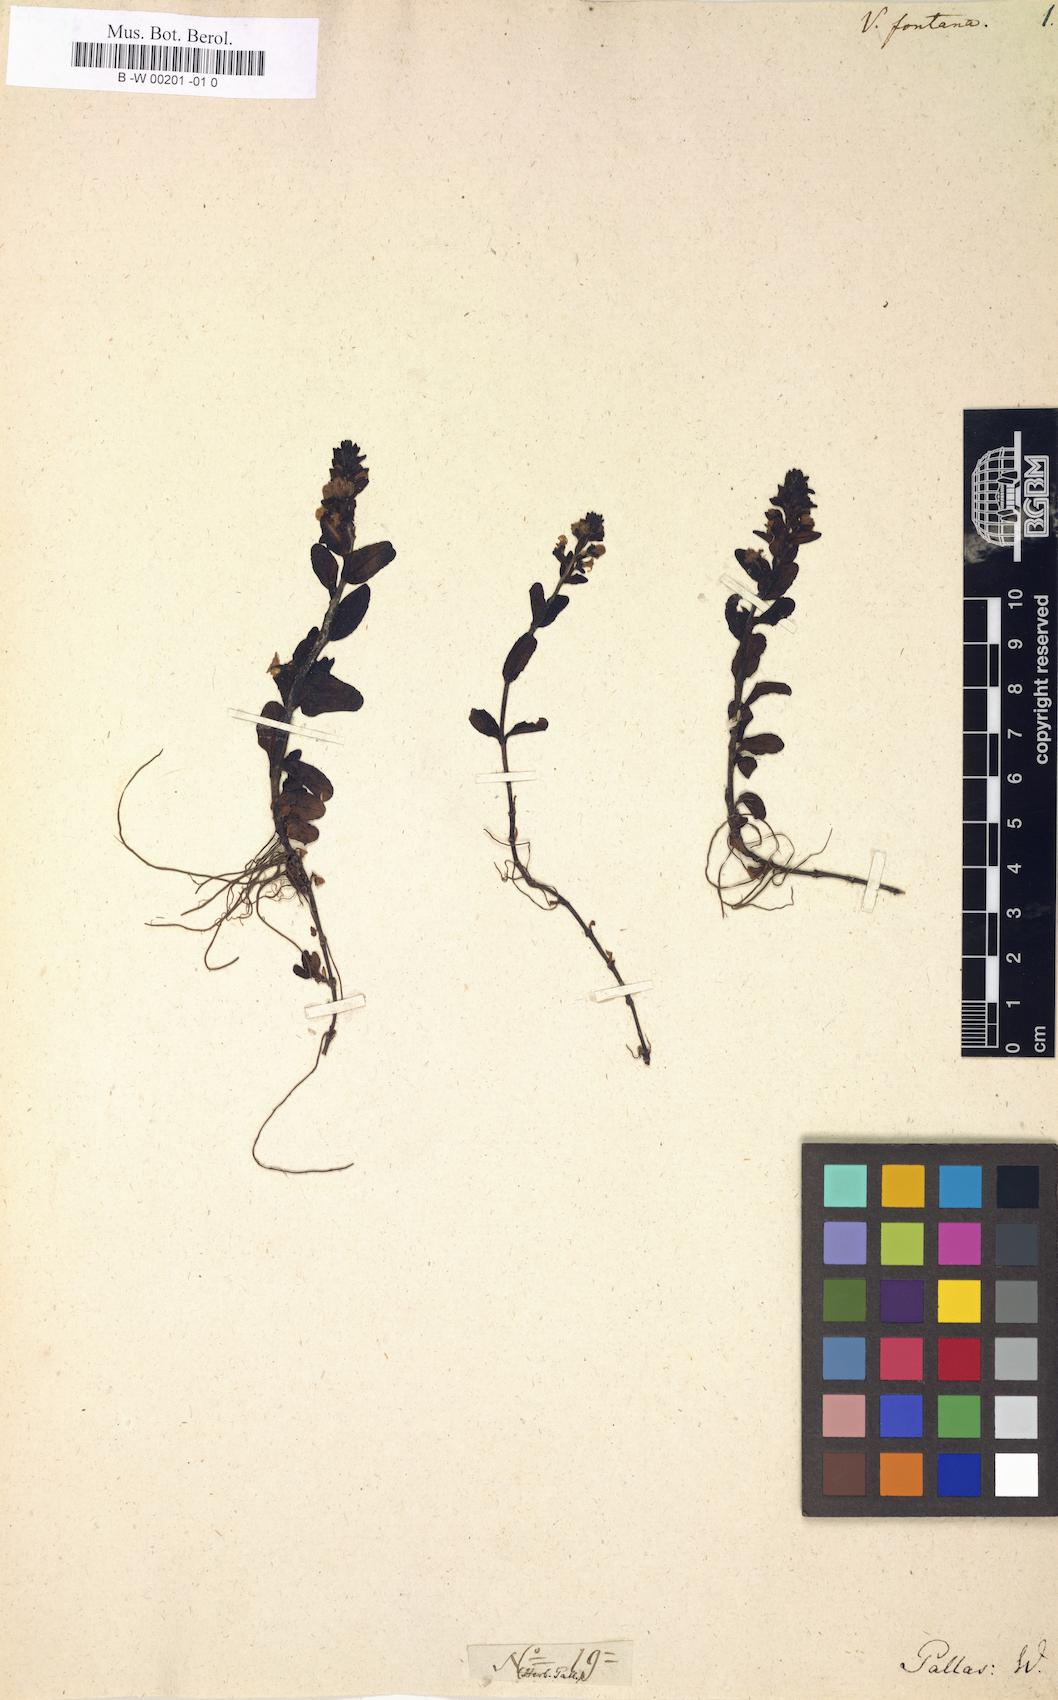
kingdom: Plantae
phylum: Tracheophyta
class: Magnoliopsida
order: Lamiales
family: Plantaginaceae
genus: Veronica
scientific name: Veronica serpyllifolia
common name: Thyme-leaved speedwell
